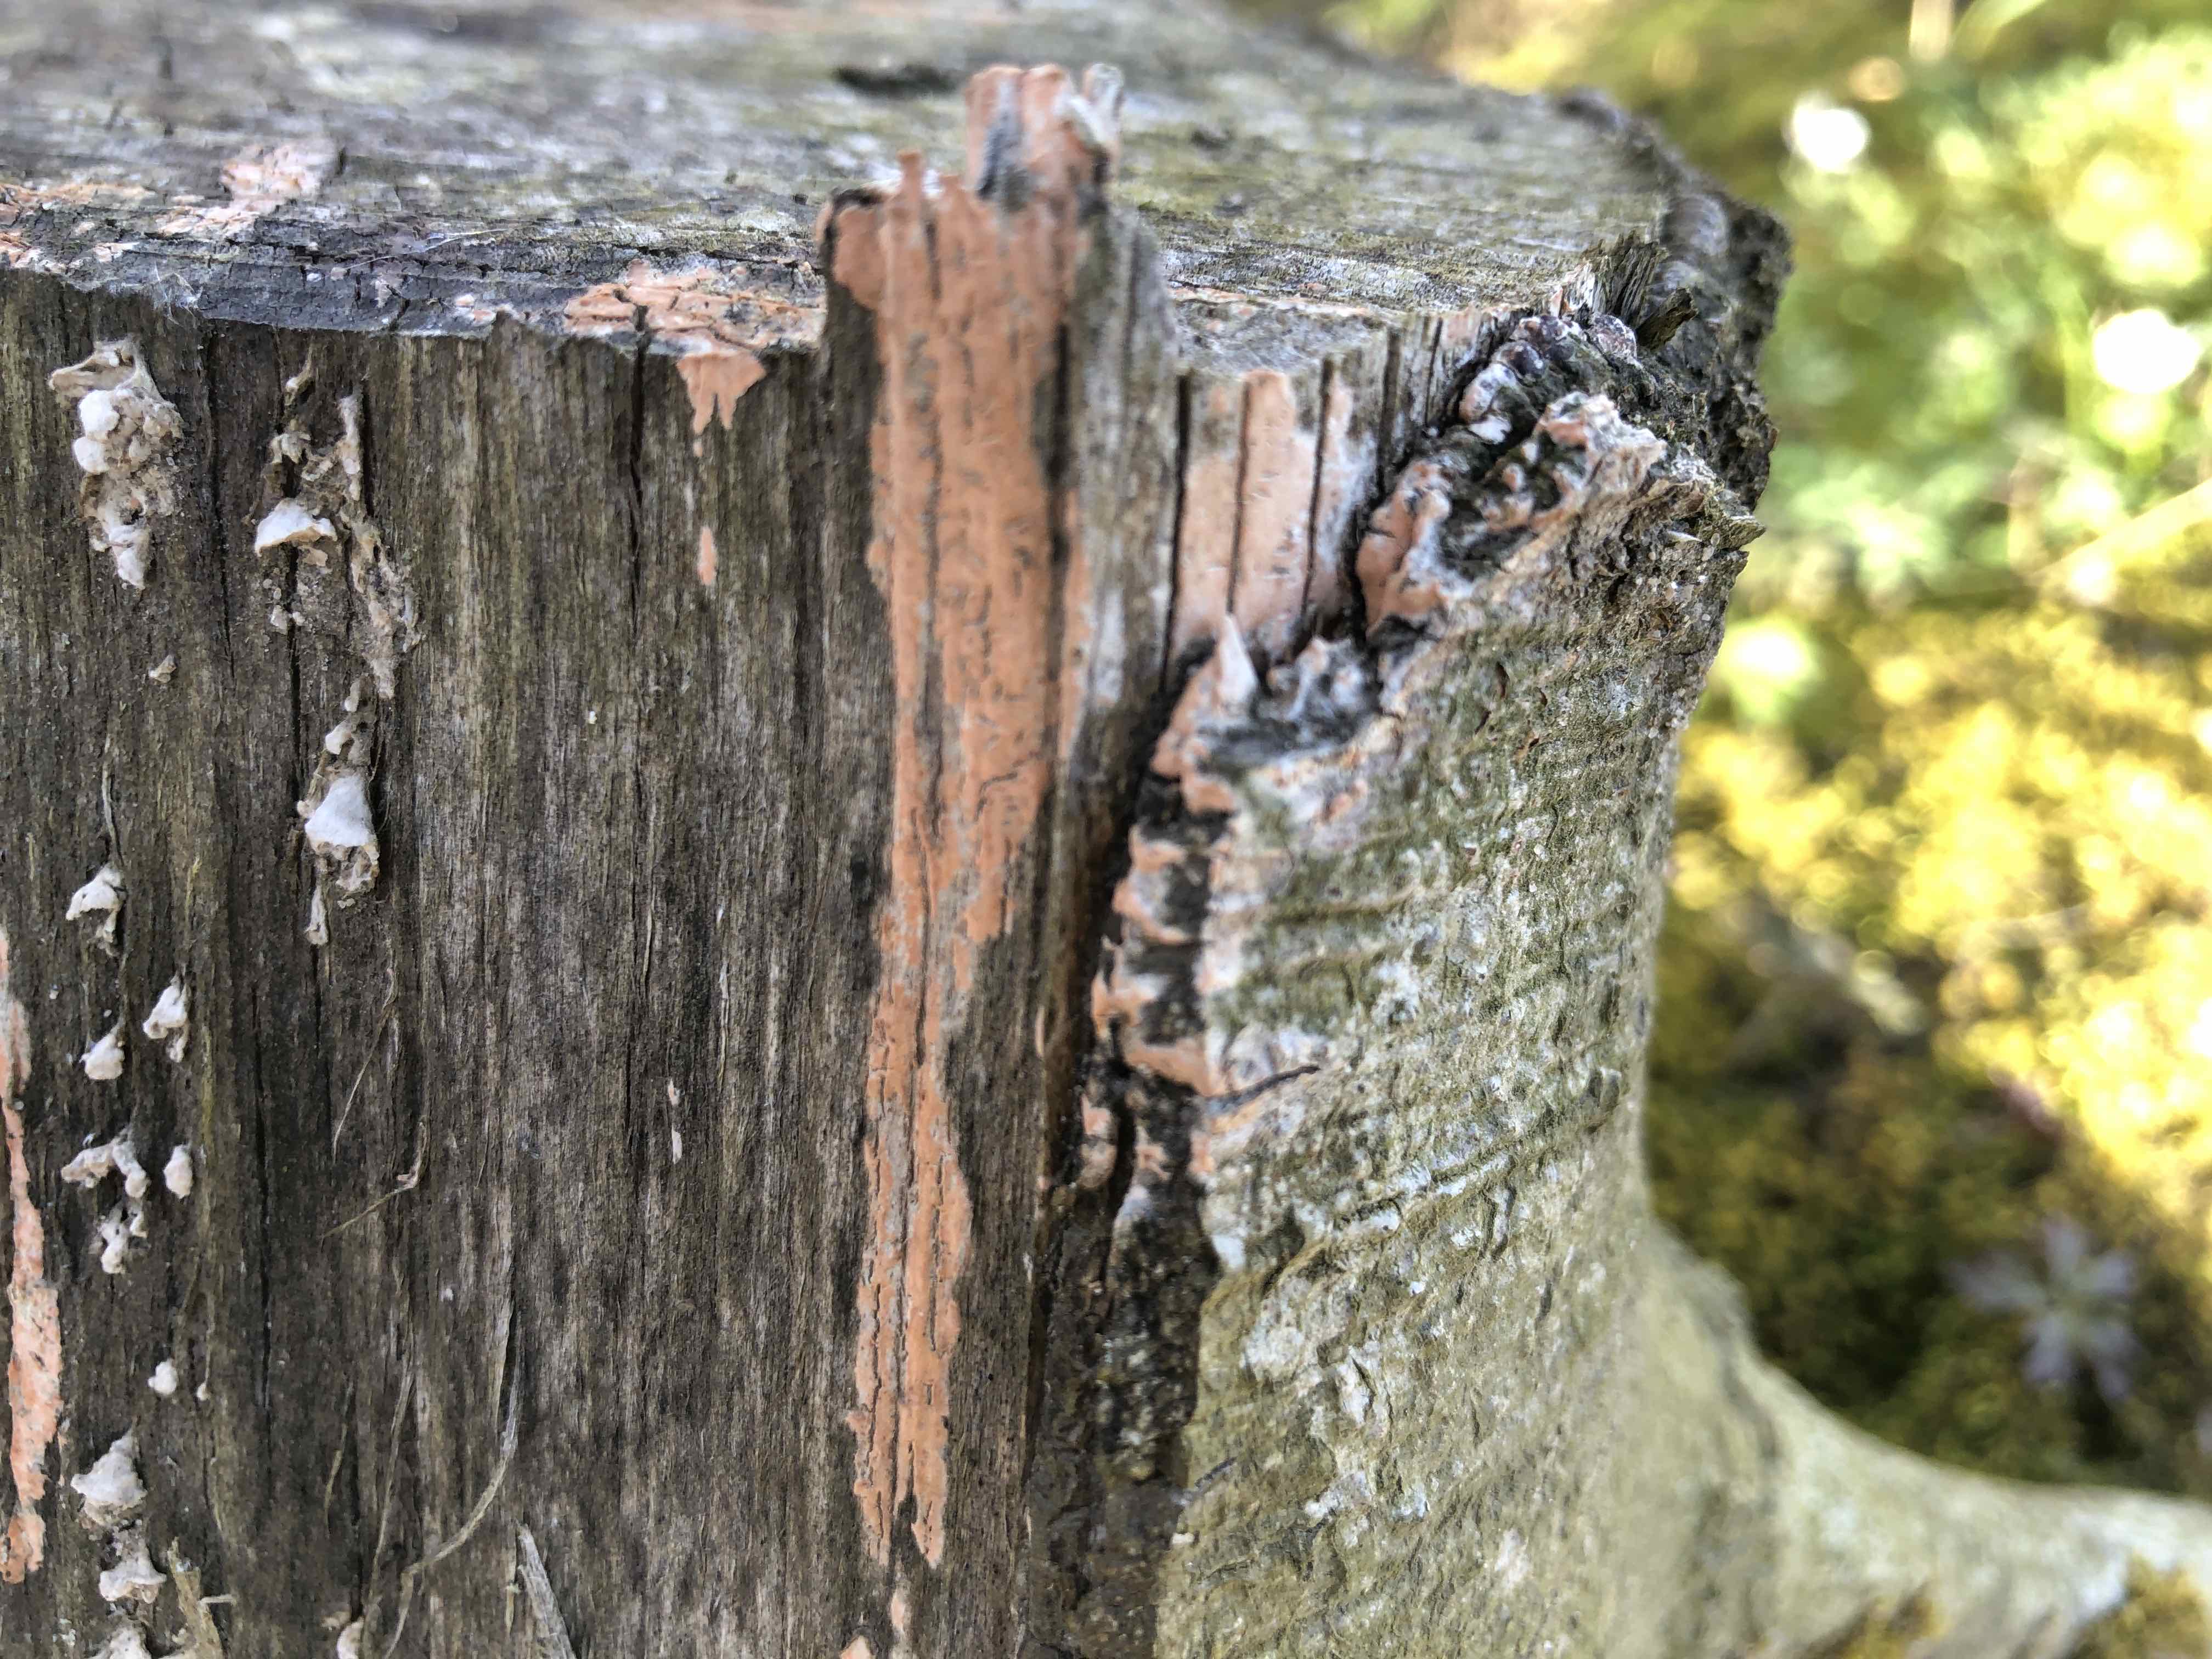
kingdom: Fungi
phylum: Basidiomycota
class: Agaricomycetes
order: Russulales
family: Peniophoraceae
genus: Peniophora
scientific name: Peniophora incarnata
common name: laksefarvet voksskind
